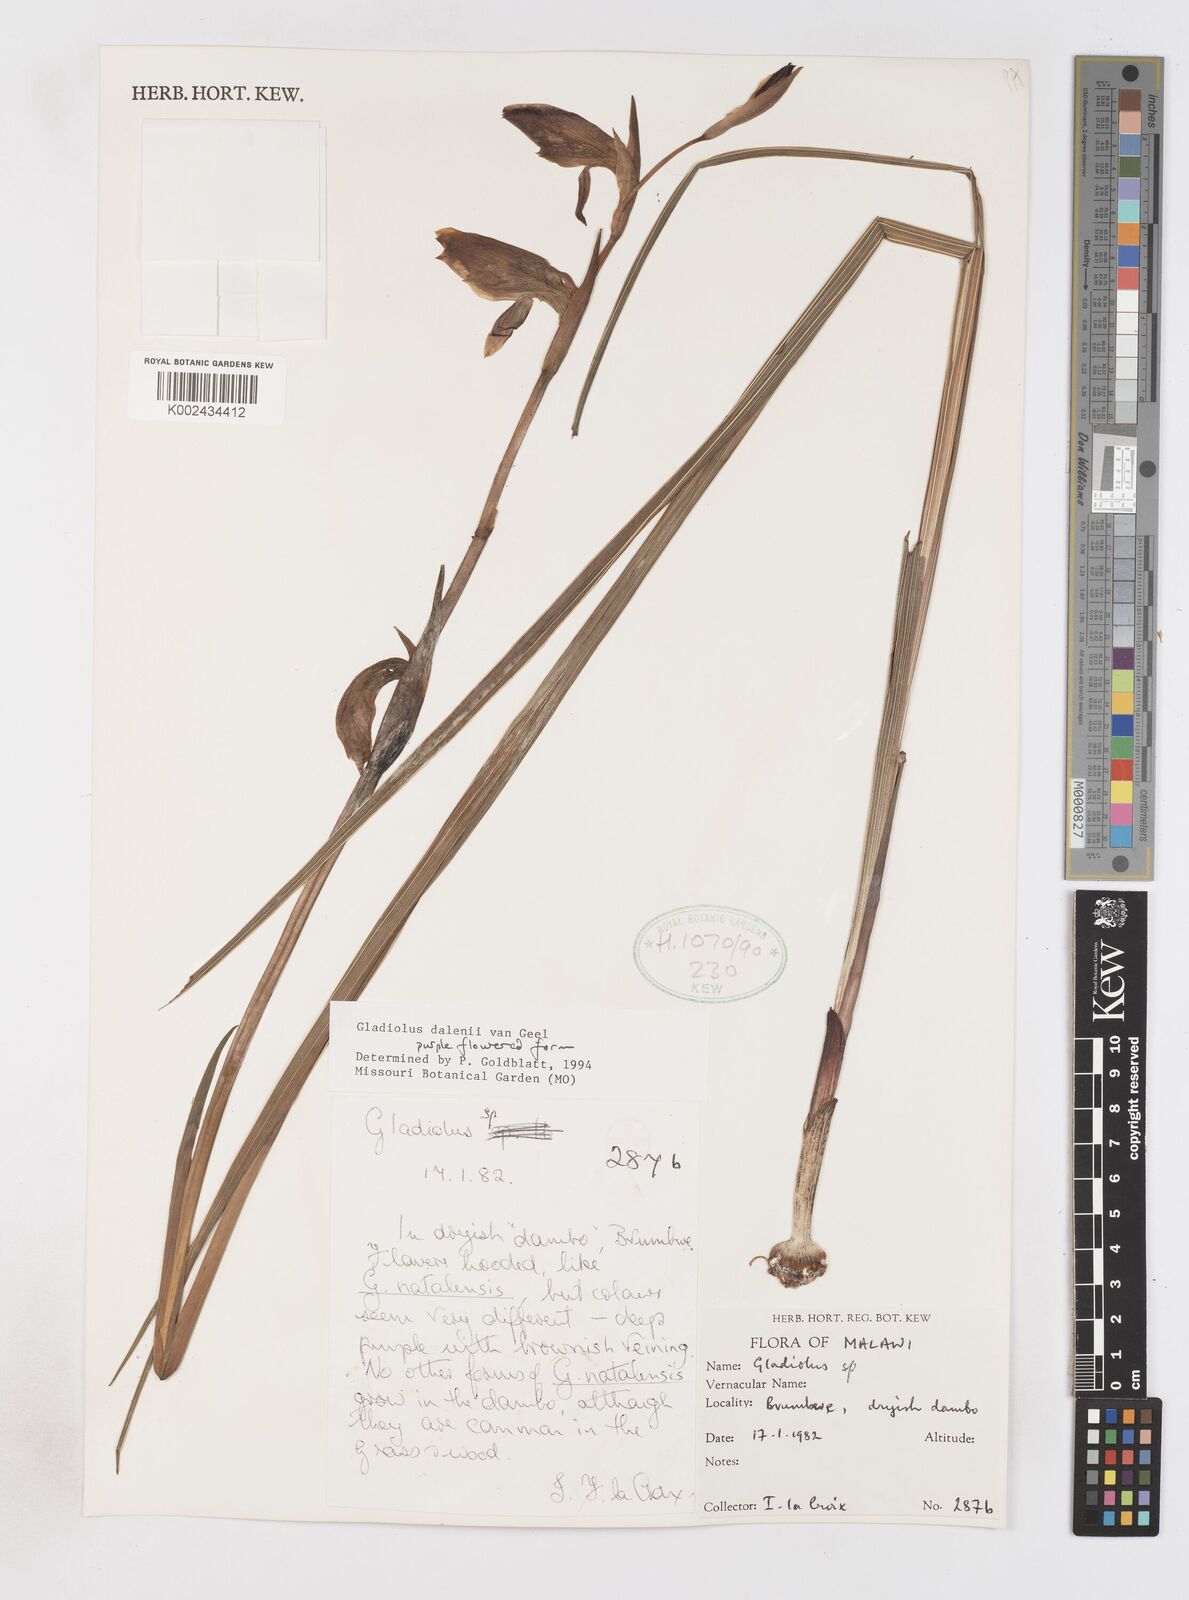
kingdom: Plantae
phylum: Tracheophyta
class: Liliopsida
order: Asparagales
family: Iridaceae
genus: Gladiolus
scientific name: Gladiolus dalenii
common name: Cornflag
